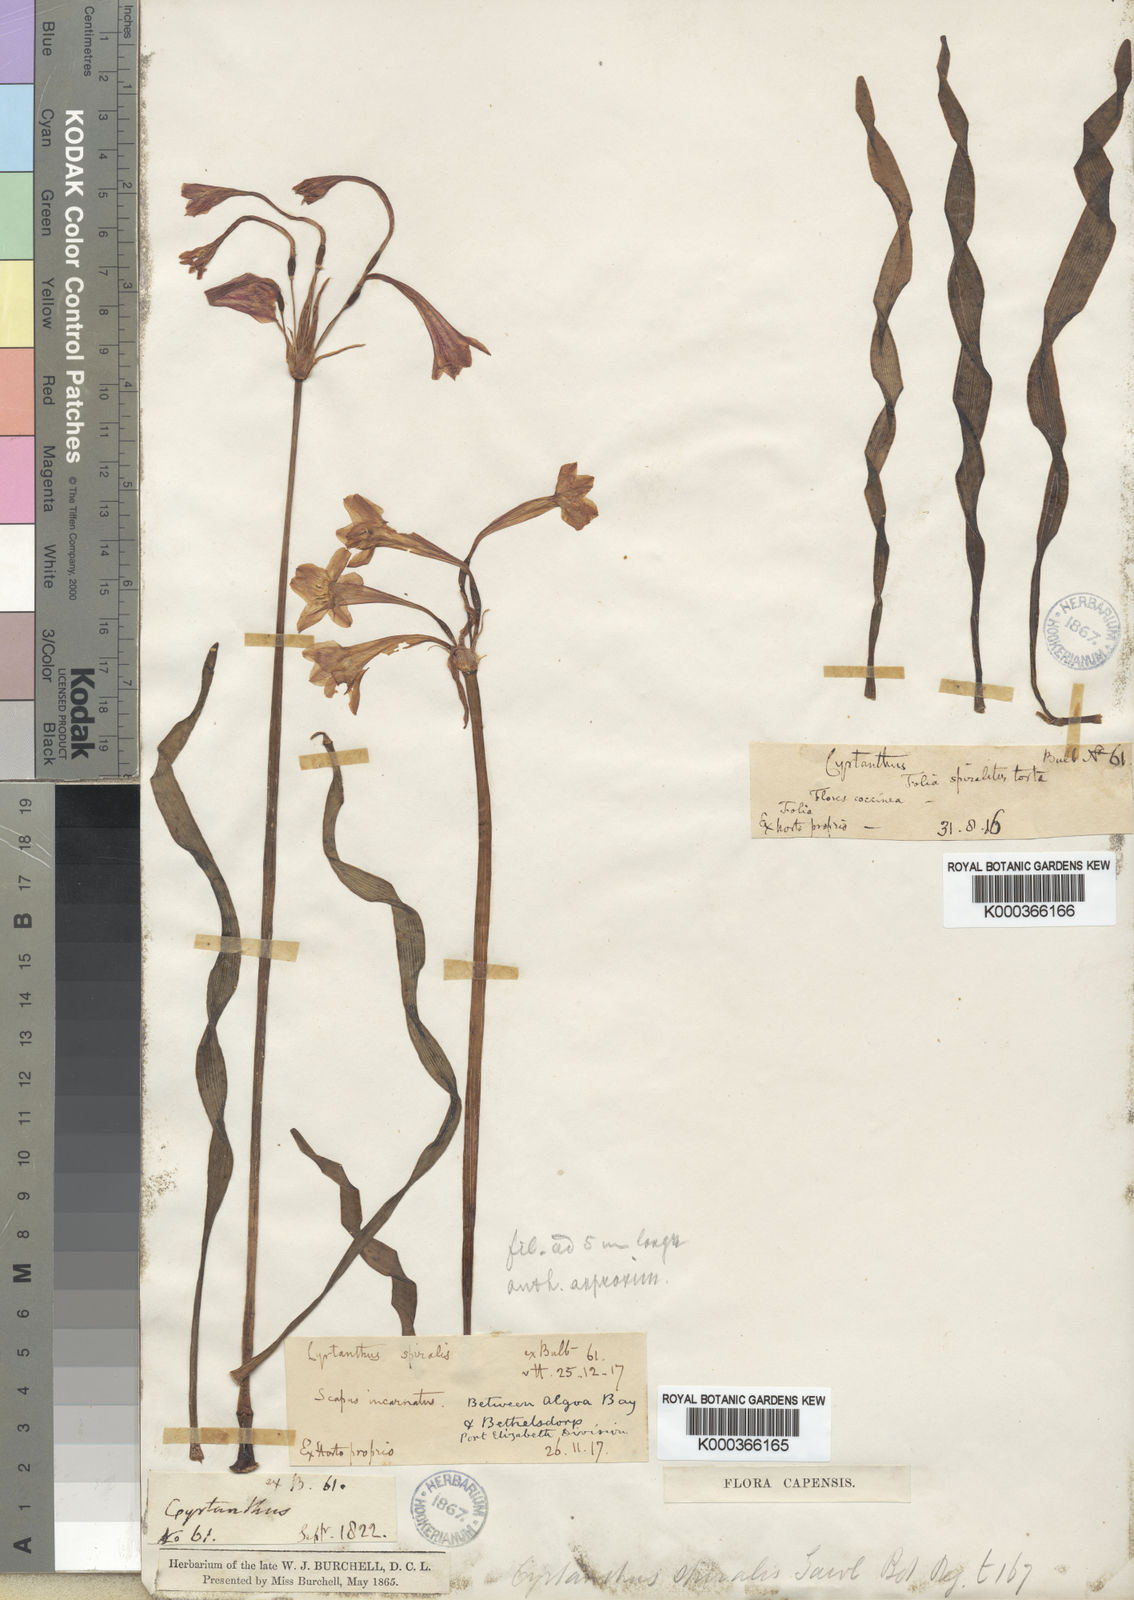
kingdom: Plantae
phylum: Tracheophyta
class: Liliopsida
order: Asparagales
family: Amaryllidaceae
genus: Cyrtanthus
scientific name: Cyrtanthus spiralis
